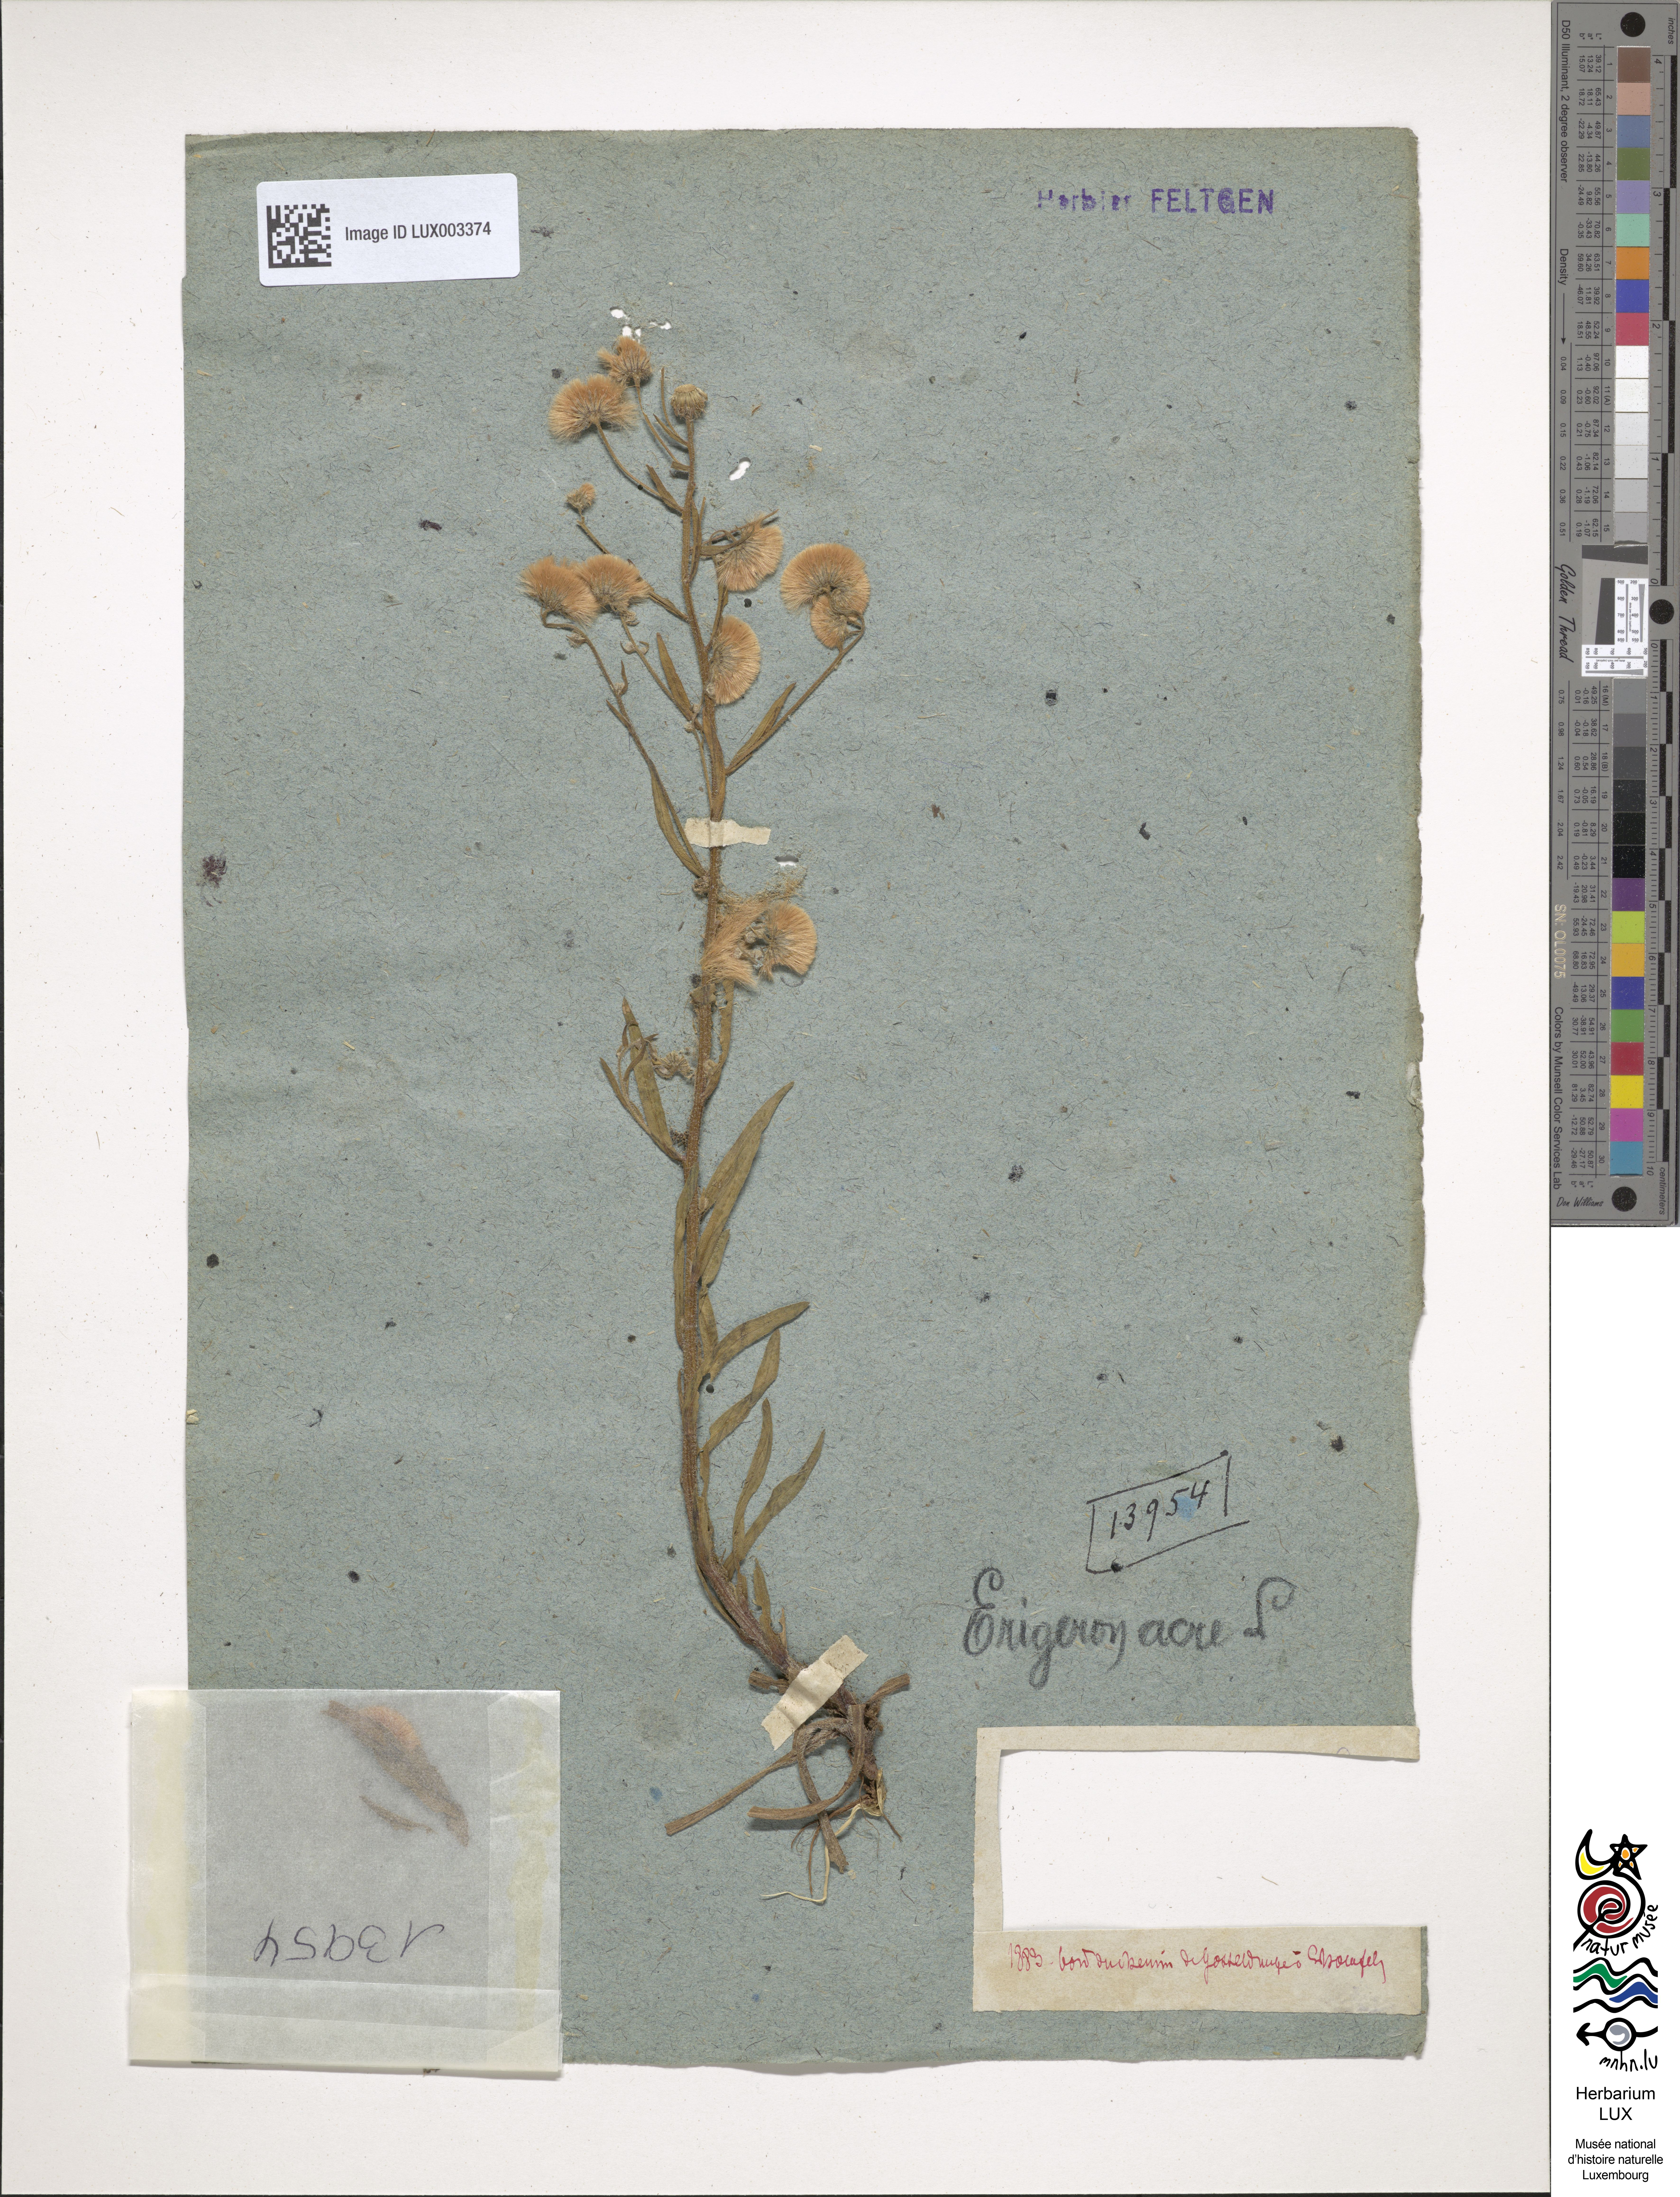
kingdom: Plantae
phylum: Tracheophyta
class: Magnoliopsida
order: Asterales
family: Asteraceae
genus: Erigeron
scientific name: Erigeron acer
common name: Blue fleabane
